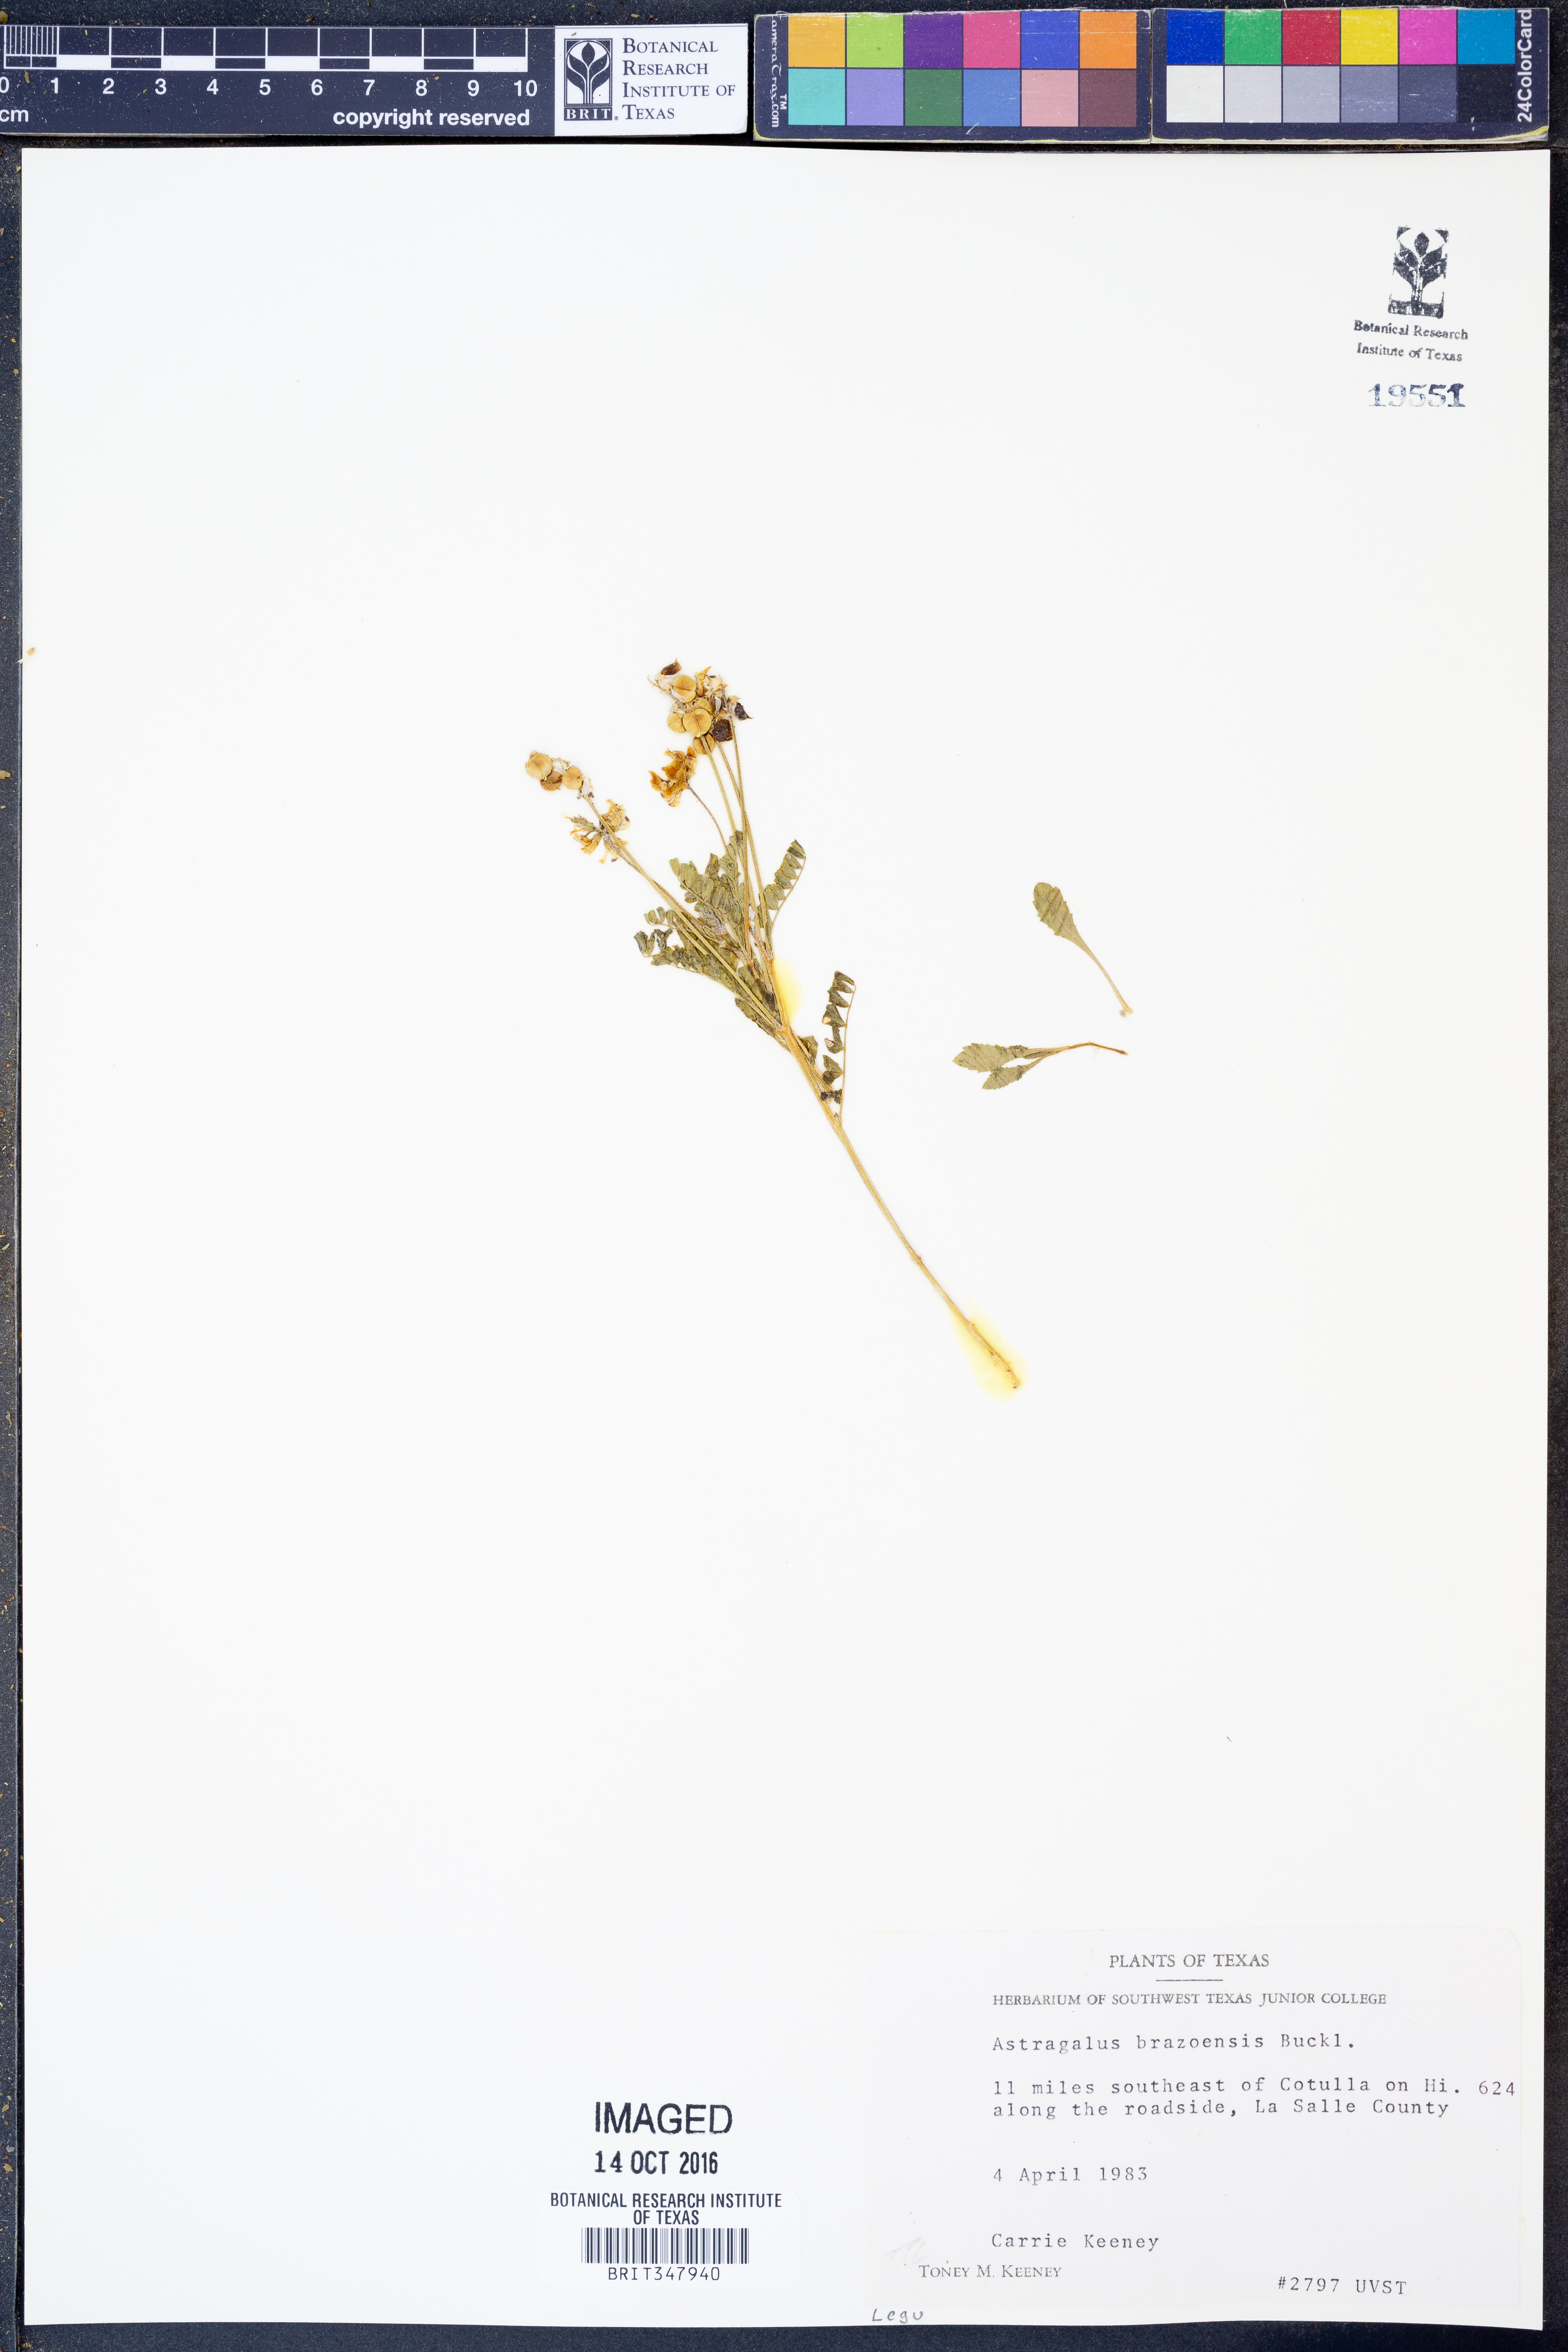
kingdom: Plantae
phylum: Tracheophyta
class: Magnoliopsida
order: Fabales
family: Fabaceae
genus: Astragalus
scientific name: Astragalus brazoensis
